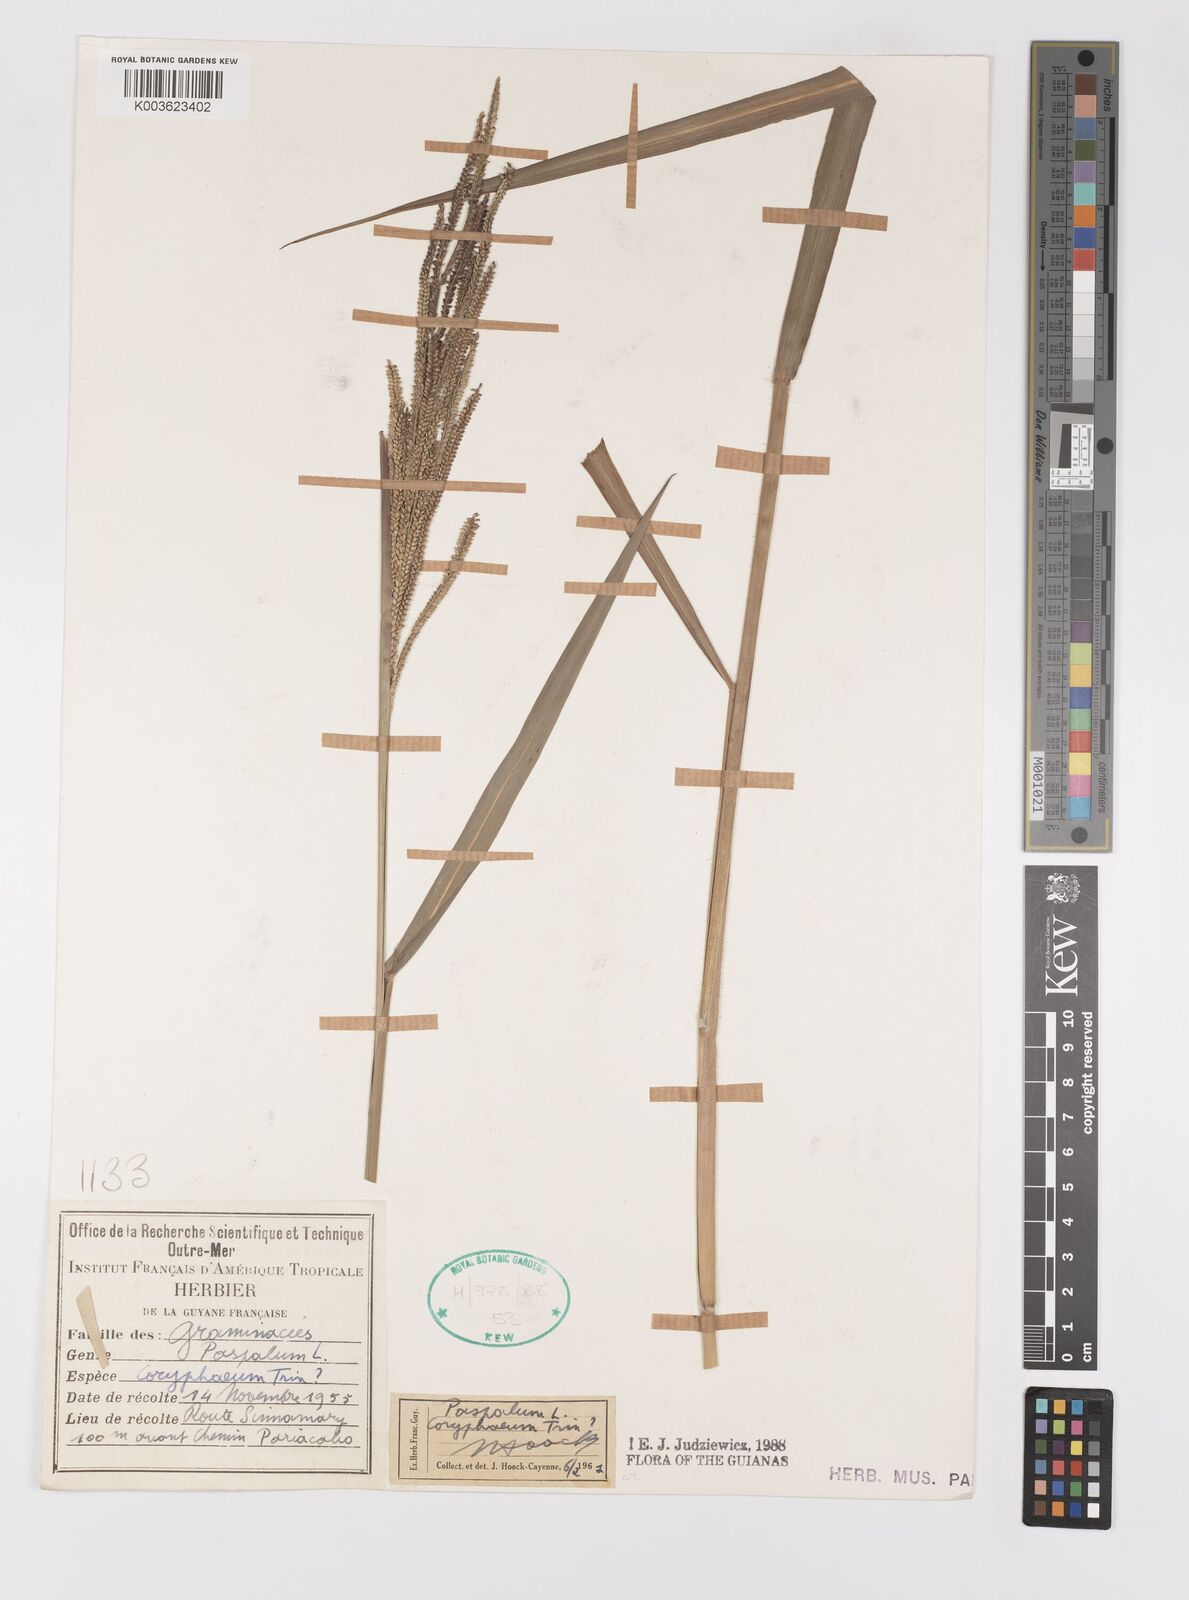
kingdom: Plantae
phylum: Tracheophyta
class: Liliopsida
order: Poales
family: Poaceae
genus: Paspalum
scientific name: Paspalum coryphaeum
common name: Emperor crowngrass
